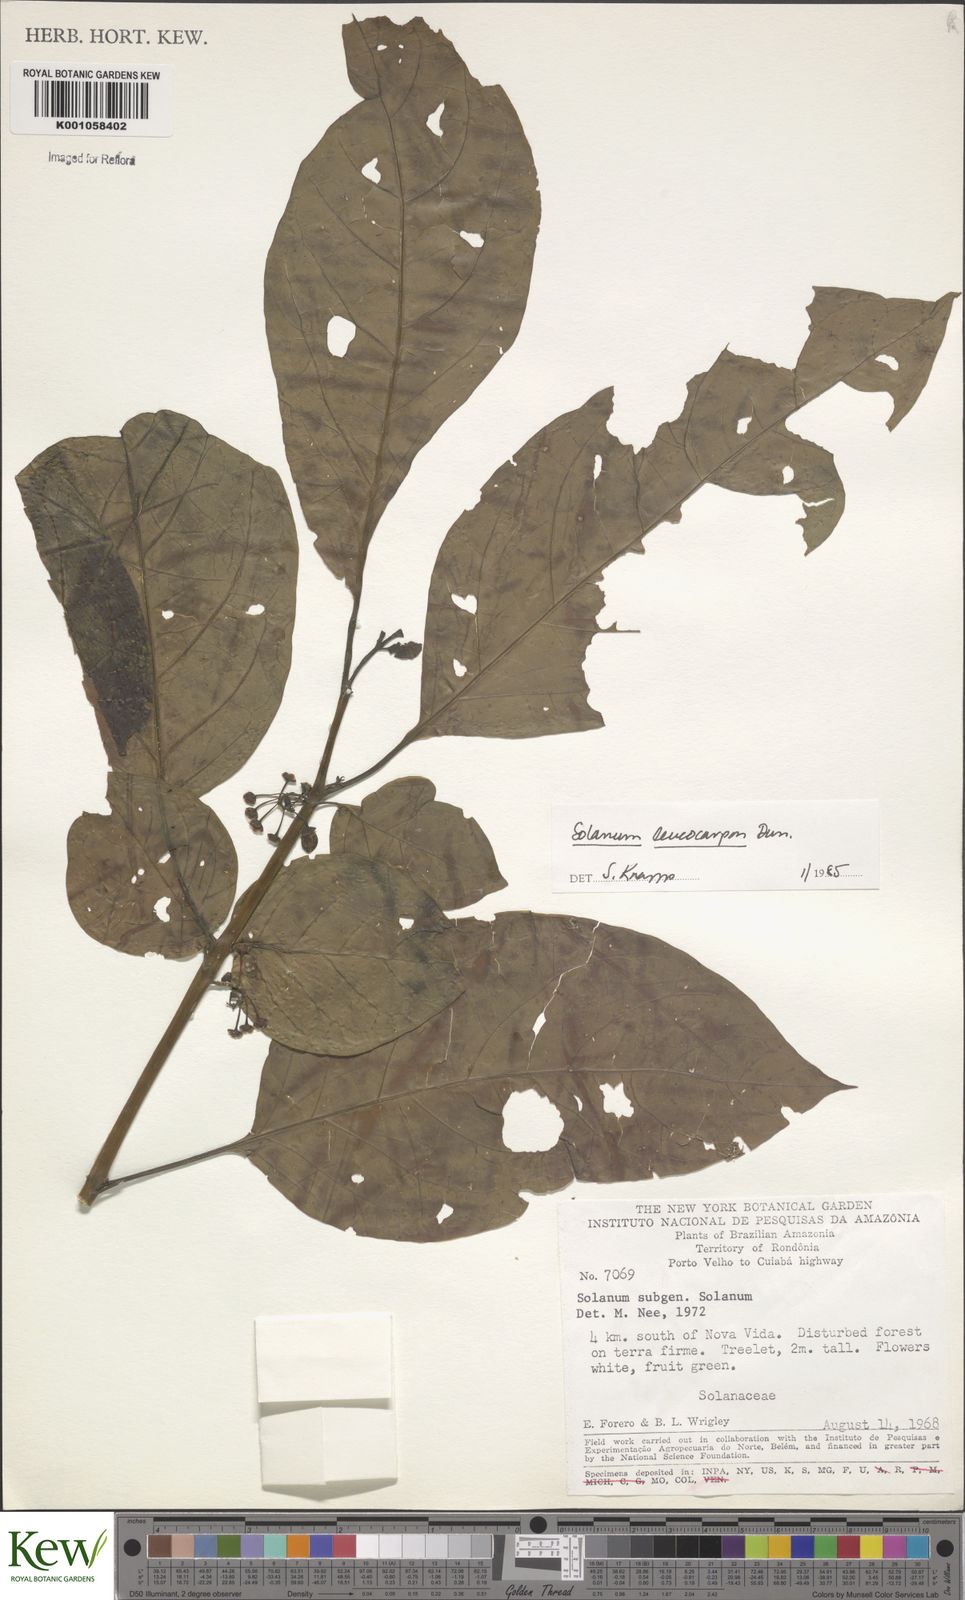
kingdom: Plantae
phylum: Tracheophyta
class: Magnoliopsida
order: Solanales
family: Solanaceae
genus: Solanum
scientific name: Solanum leucocarpon
